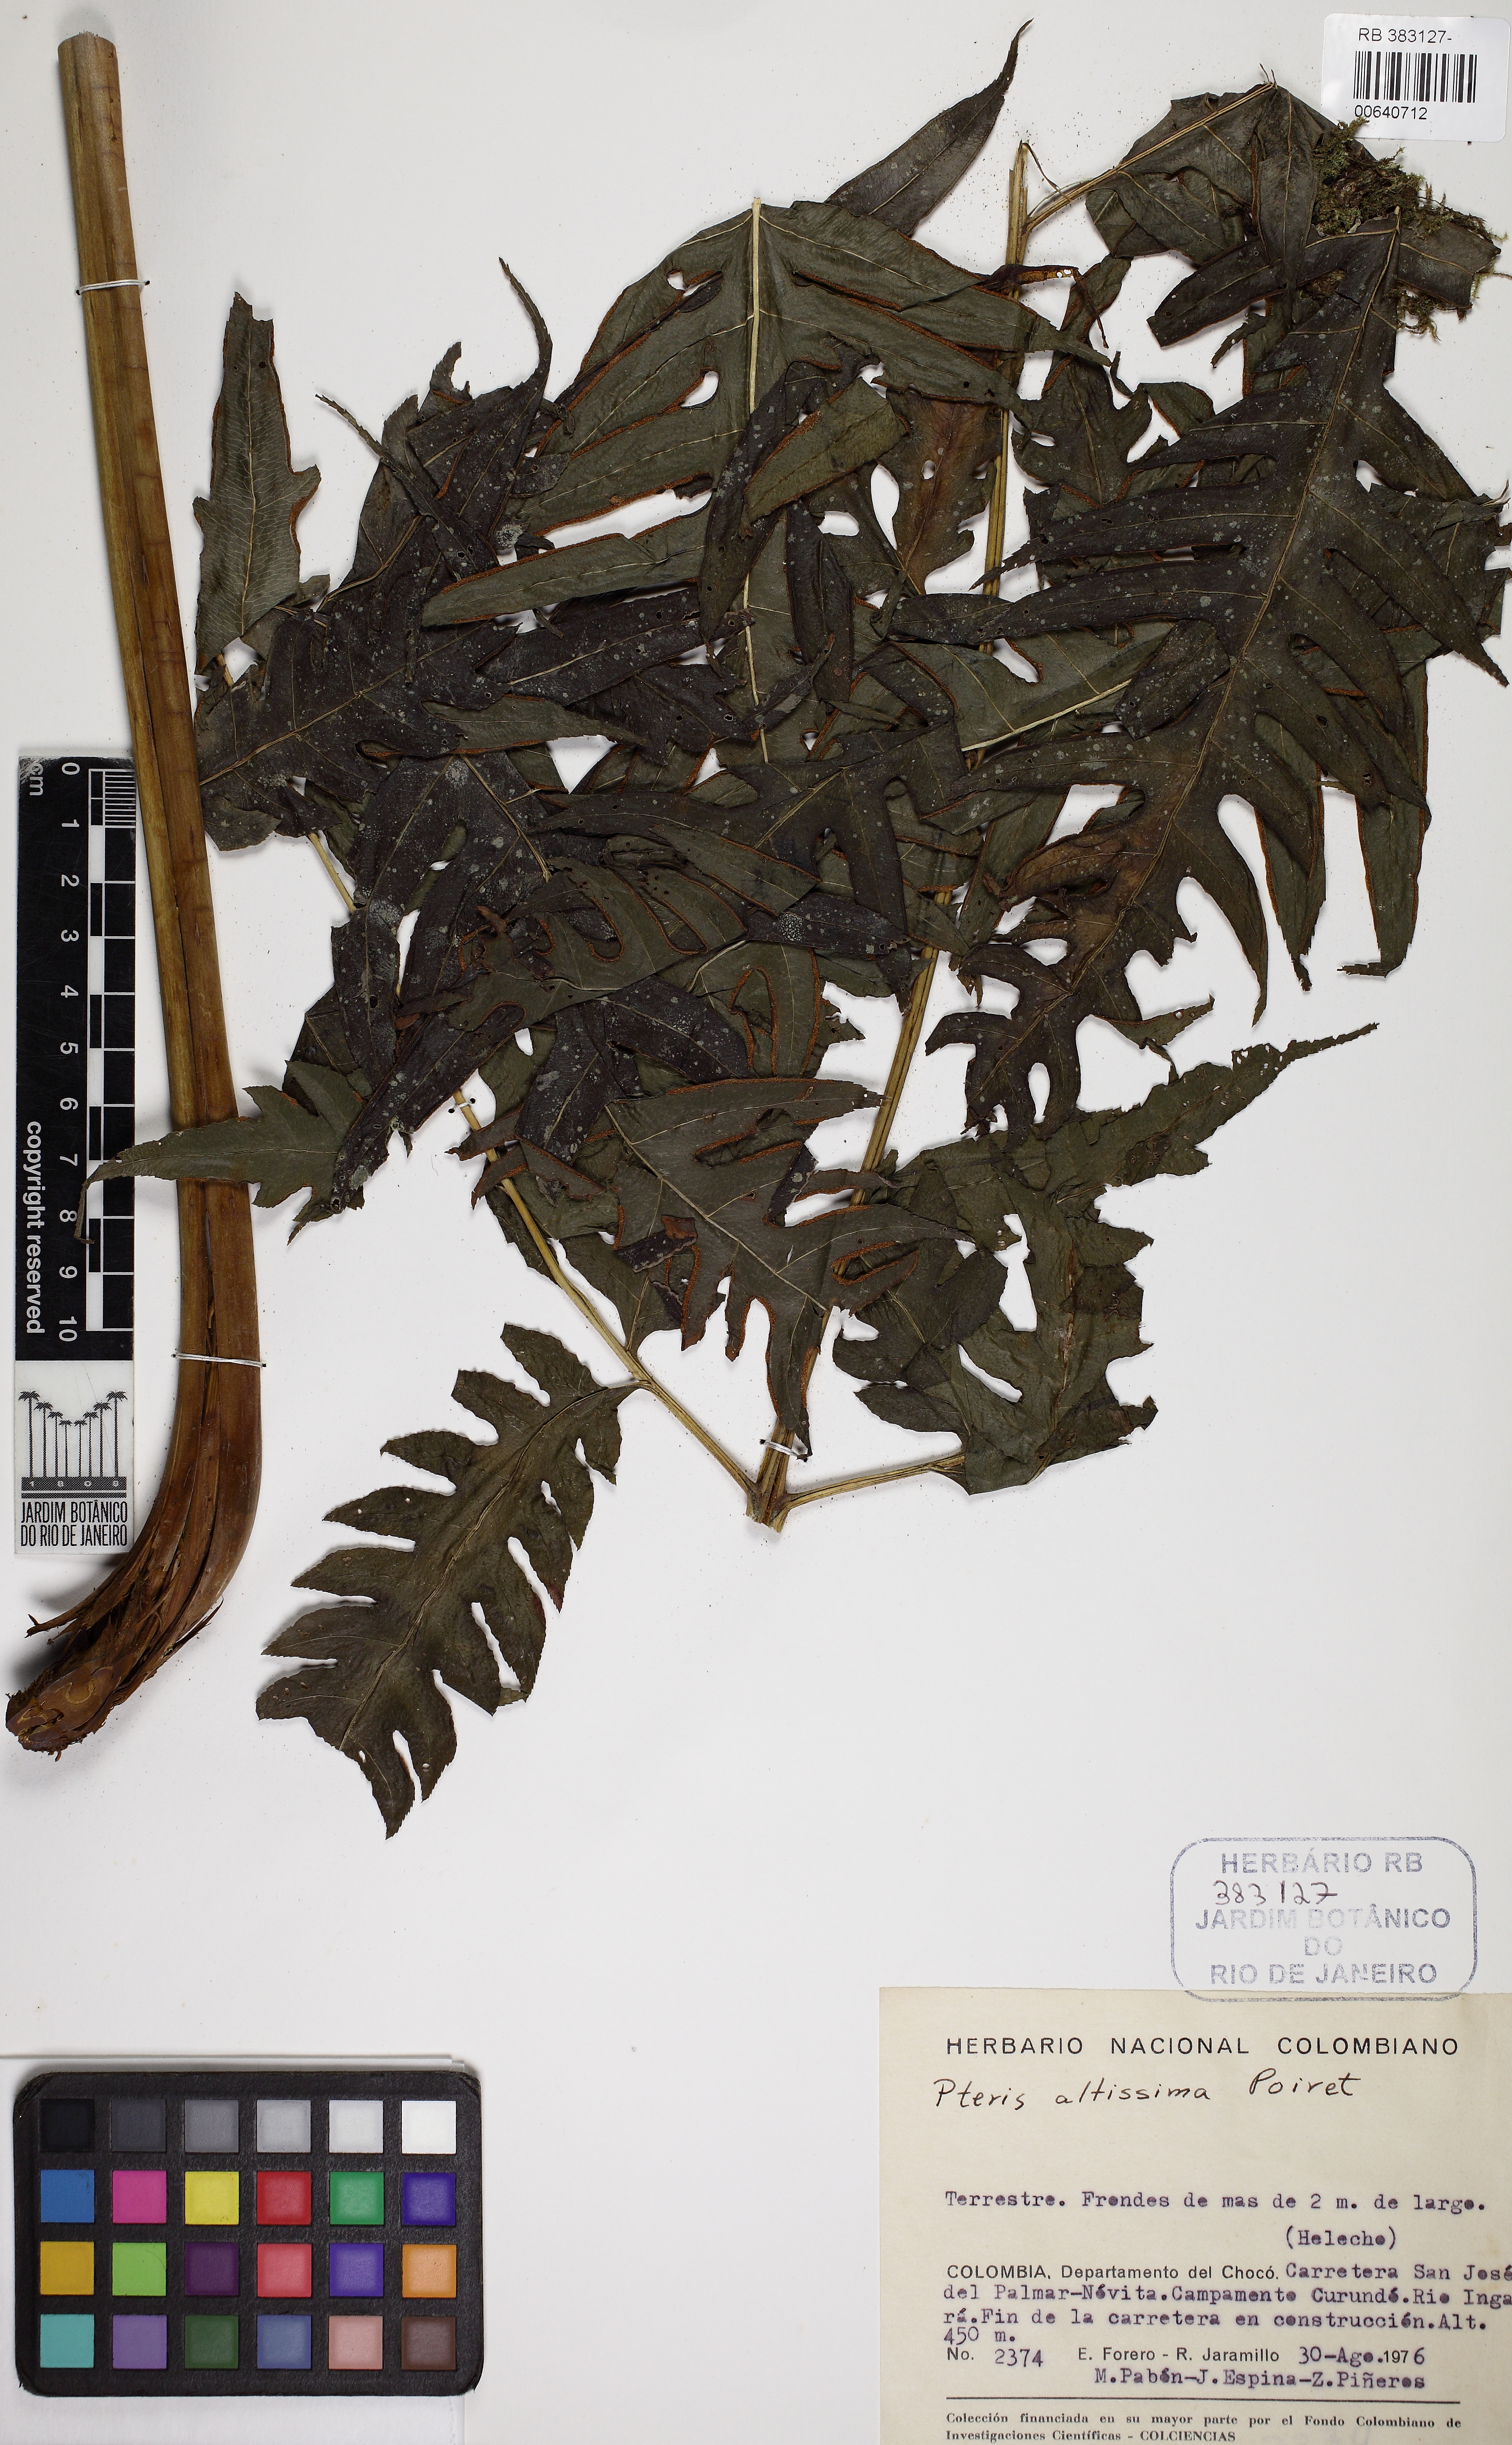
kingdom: Plantae
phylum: Tracheophyta
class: Polypodiopsida
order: Polypodiales
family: Pteridaceae
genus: Pteris
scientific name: Pteris altissima
